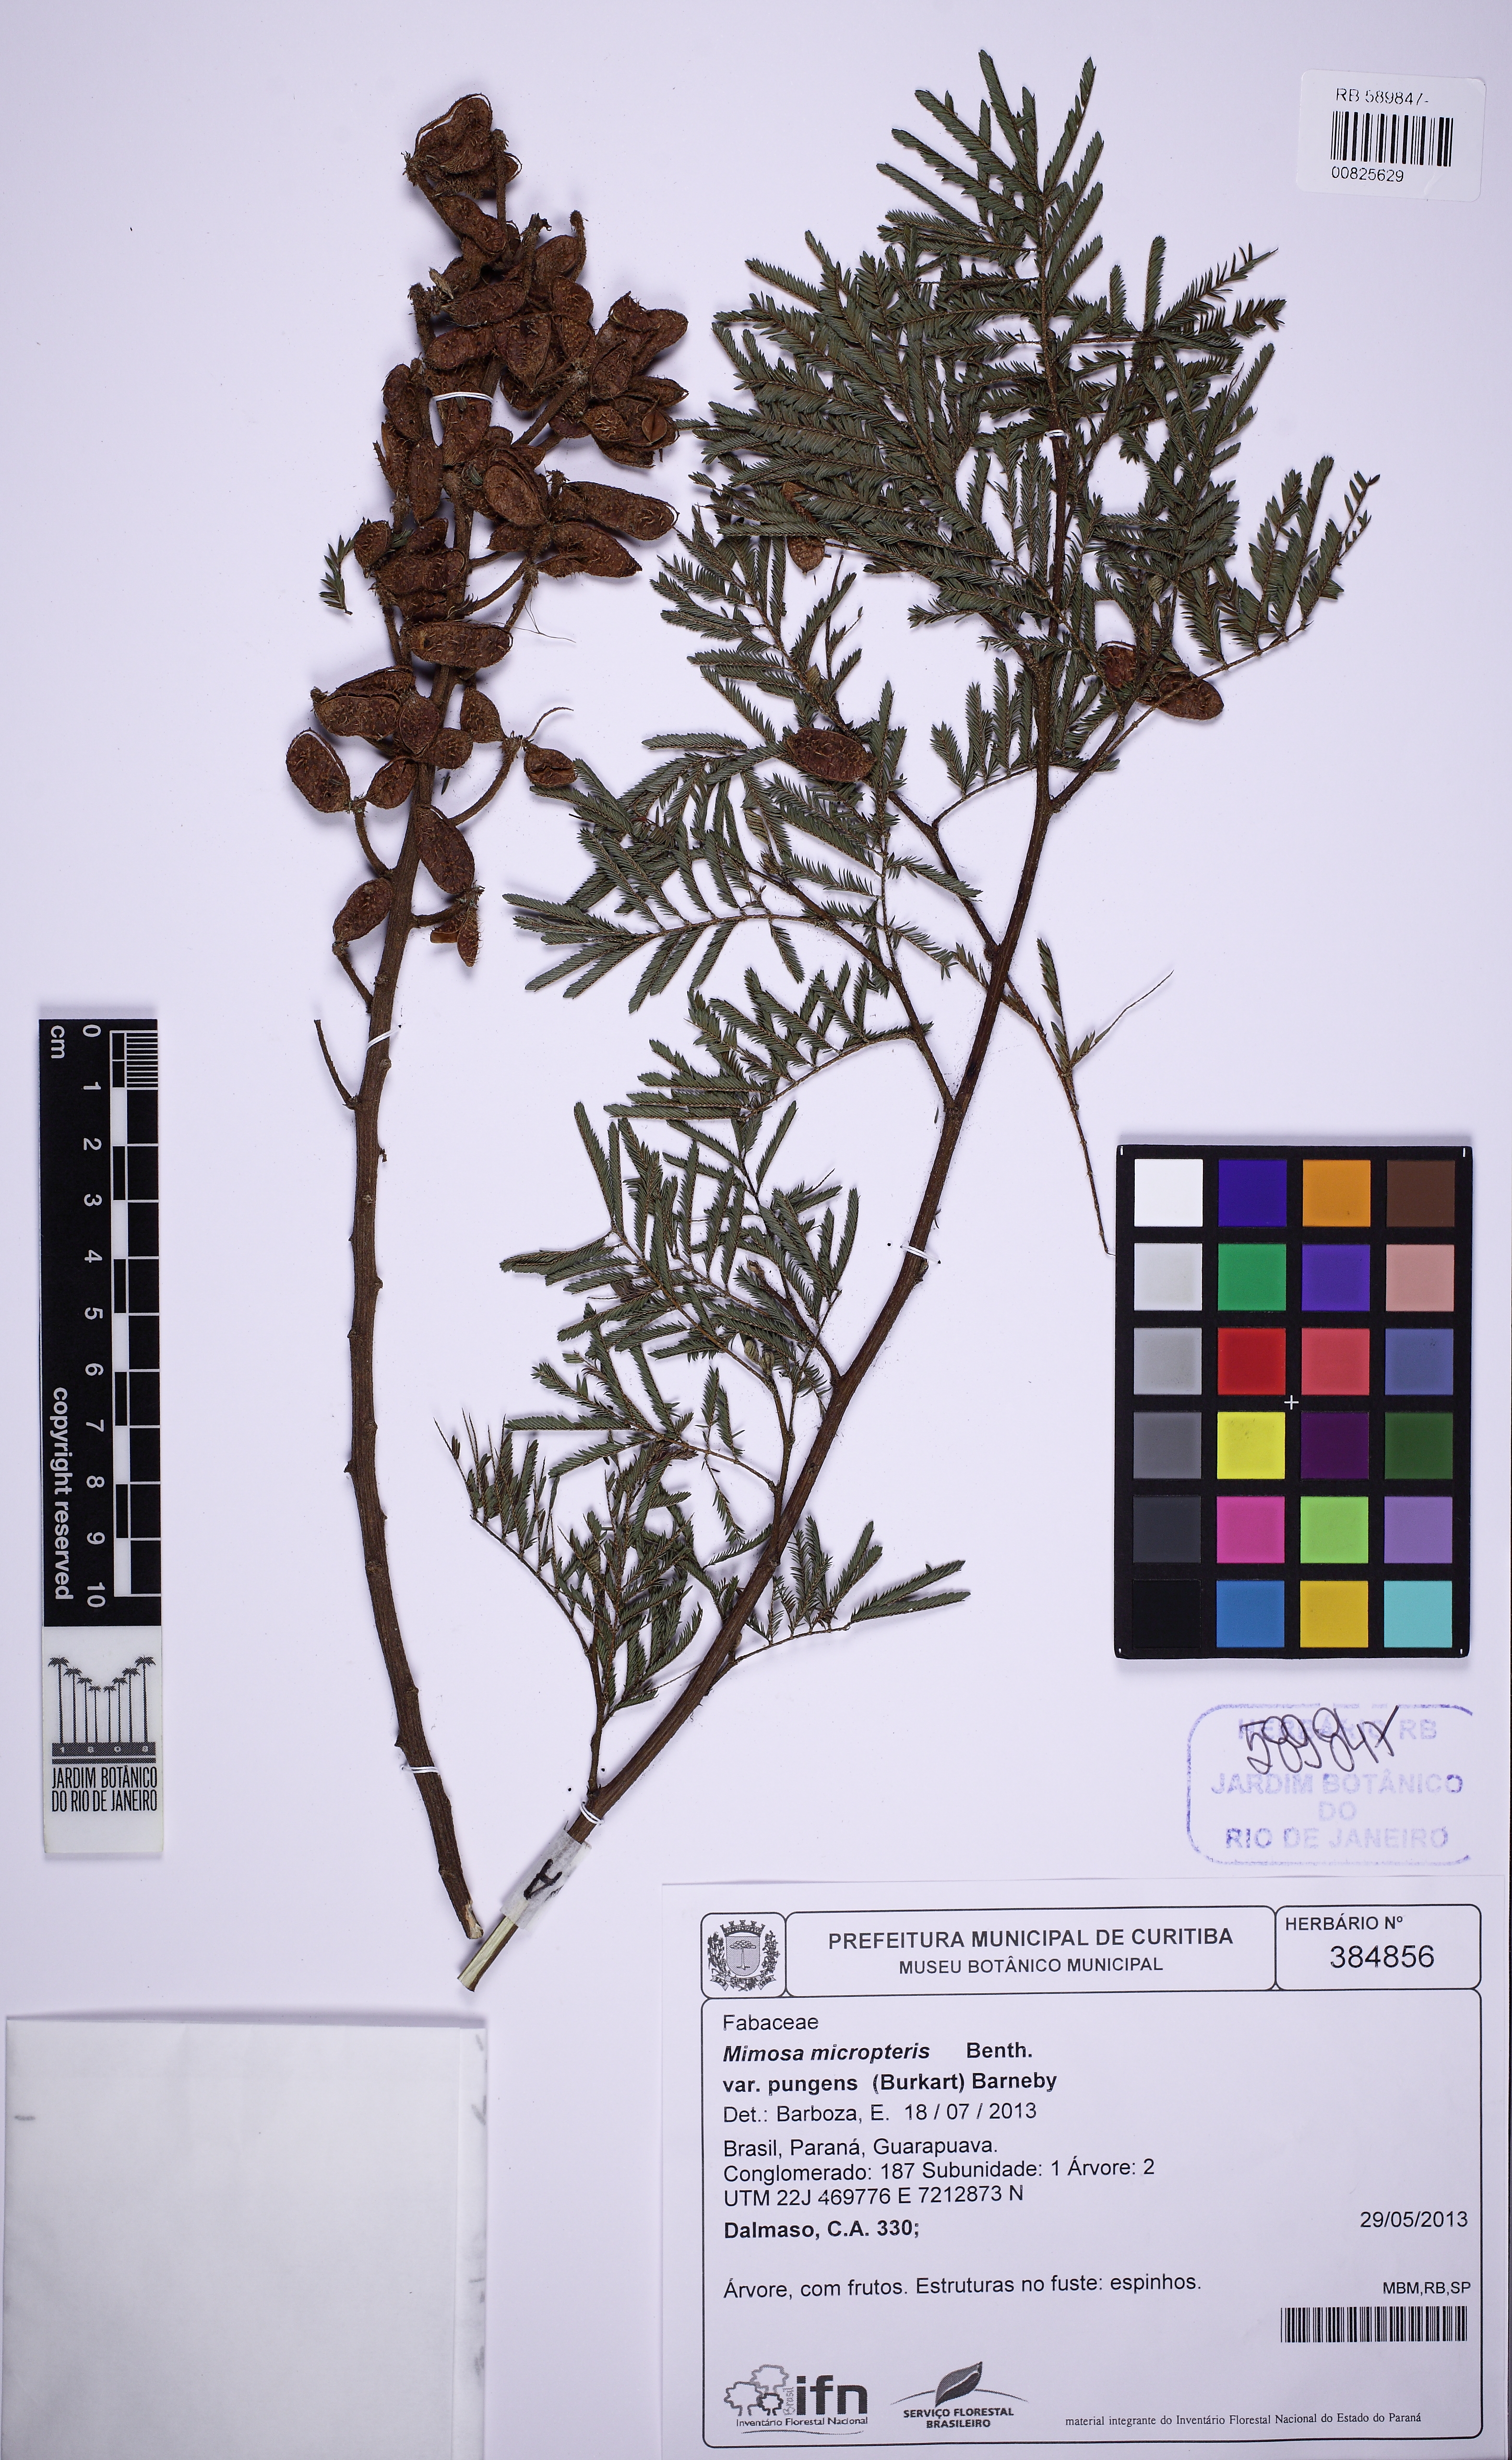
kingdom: Plantae
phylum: Tracheophyta
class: Magnoliopsida
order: Fabales
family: Fabaceae
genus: Mimosa
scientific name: Mimosa micropteris
